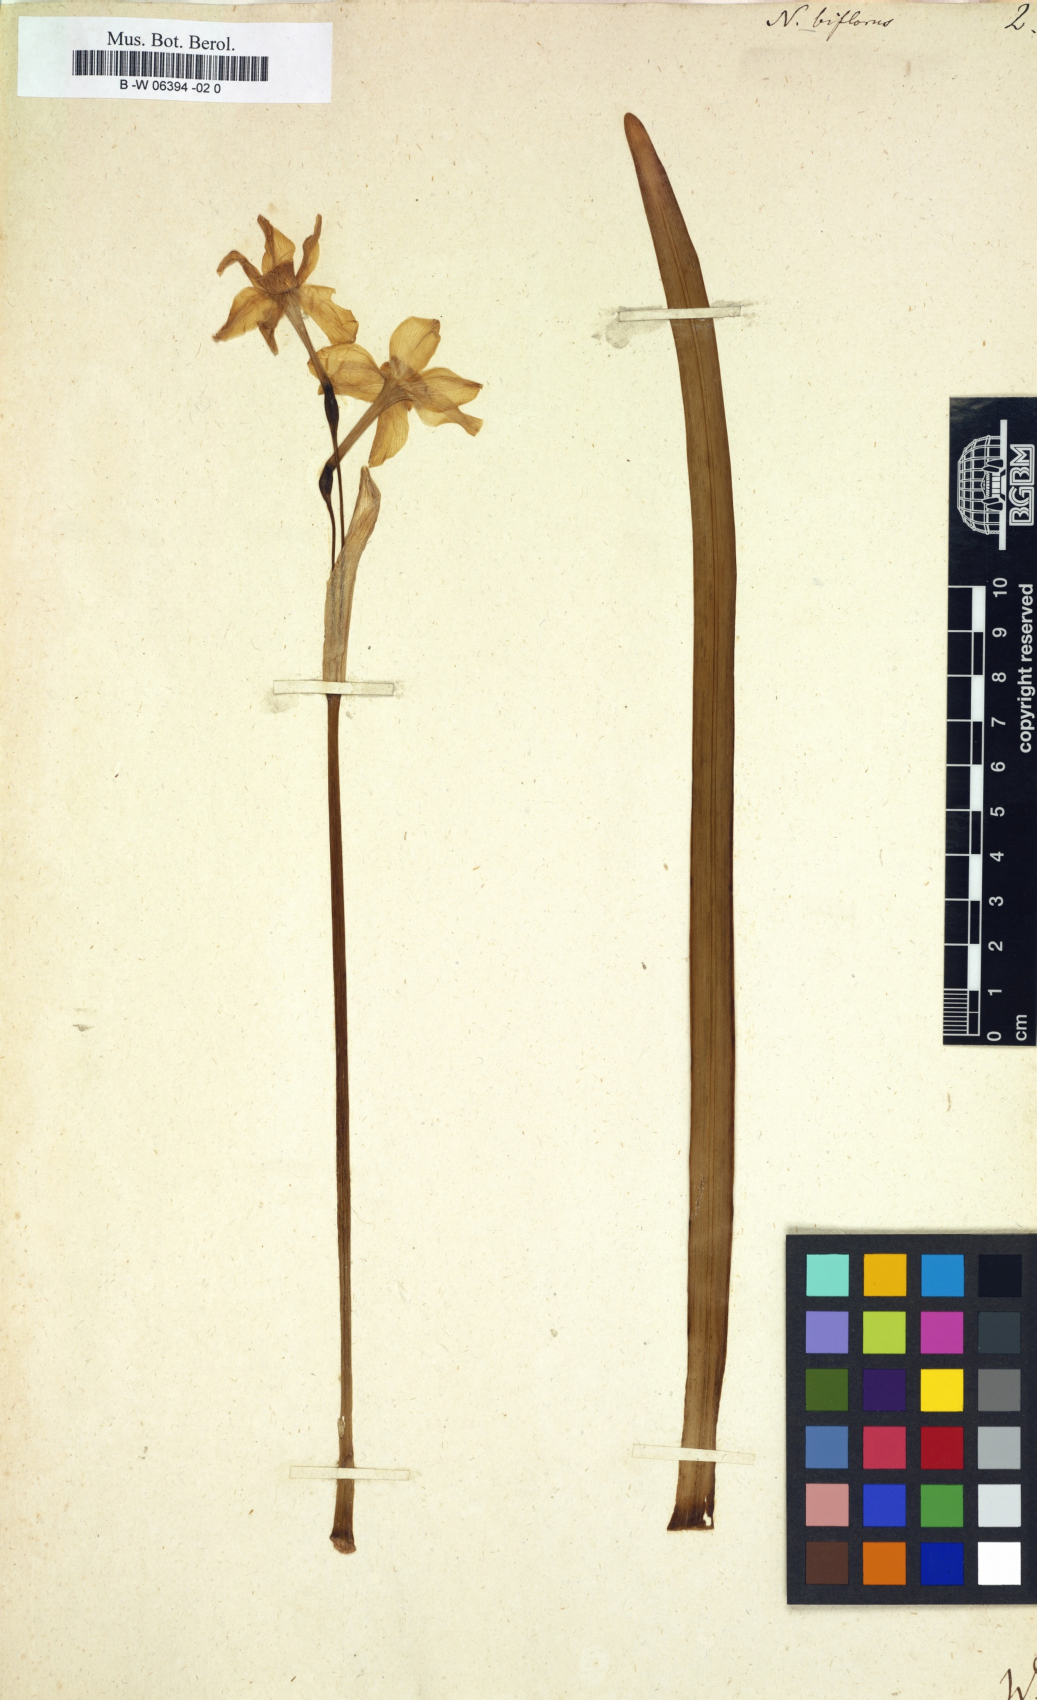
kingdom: Plantae
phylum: Tracheophyta
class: Liliopsida
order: Asparagales
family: Amaryllidaceae
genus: Narcissus
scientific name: Narcissus biflorus
